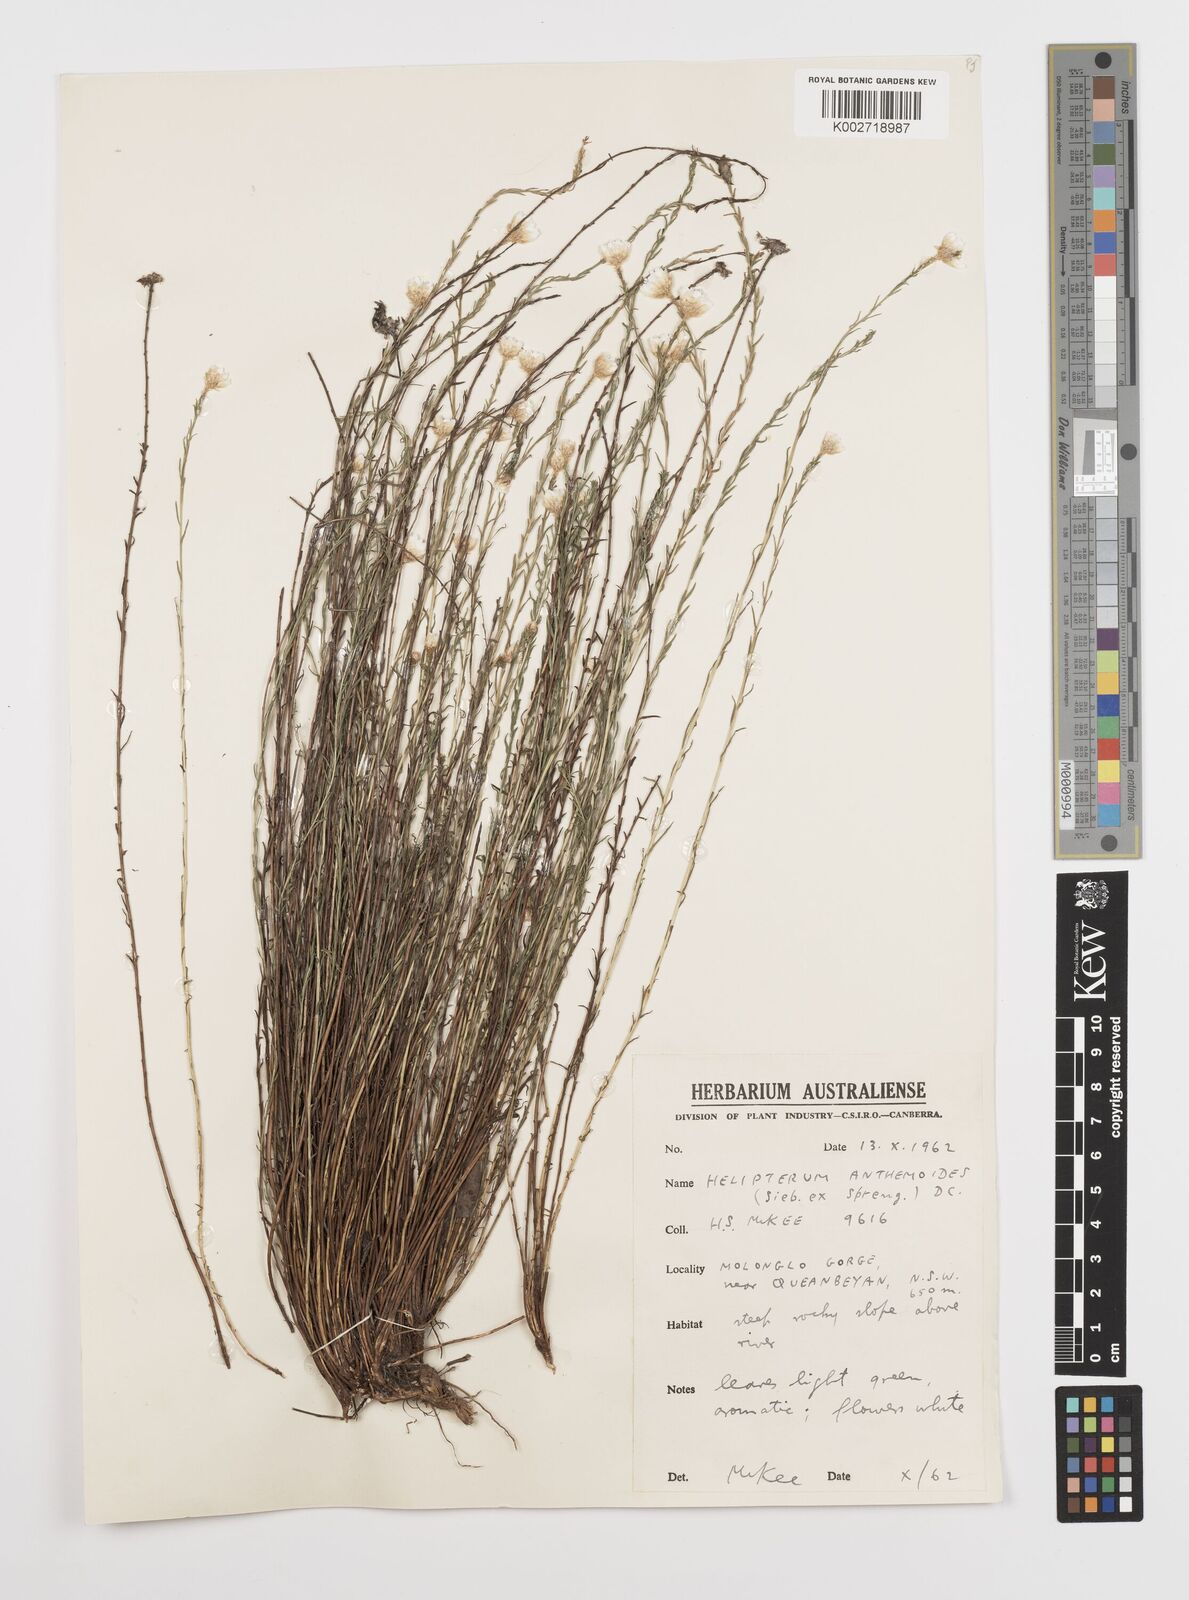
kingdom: Plantae
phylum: Tracheophyta
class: Magnoliopsida
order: Asterales
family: Asteraceae
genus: Rhodanthe
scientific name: Rhodanthe anthemoides
